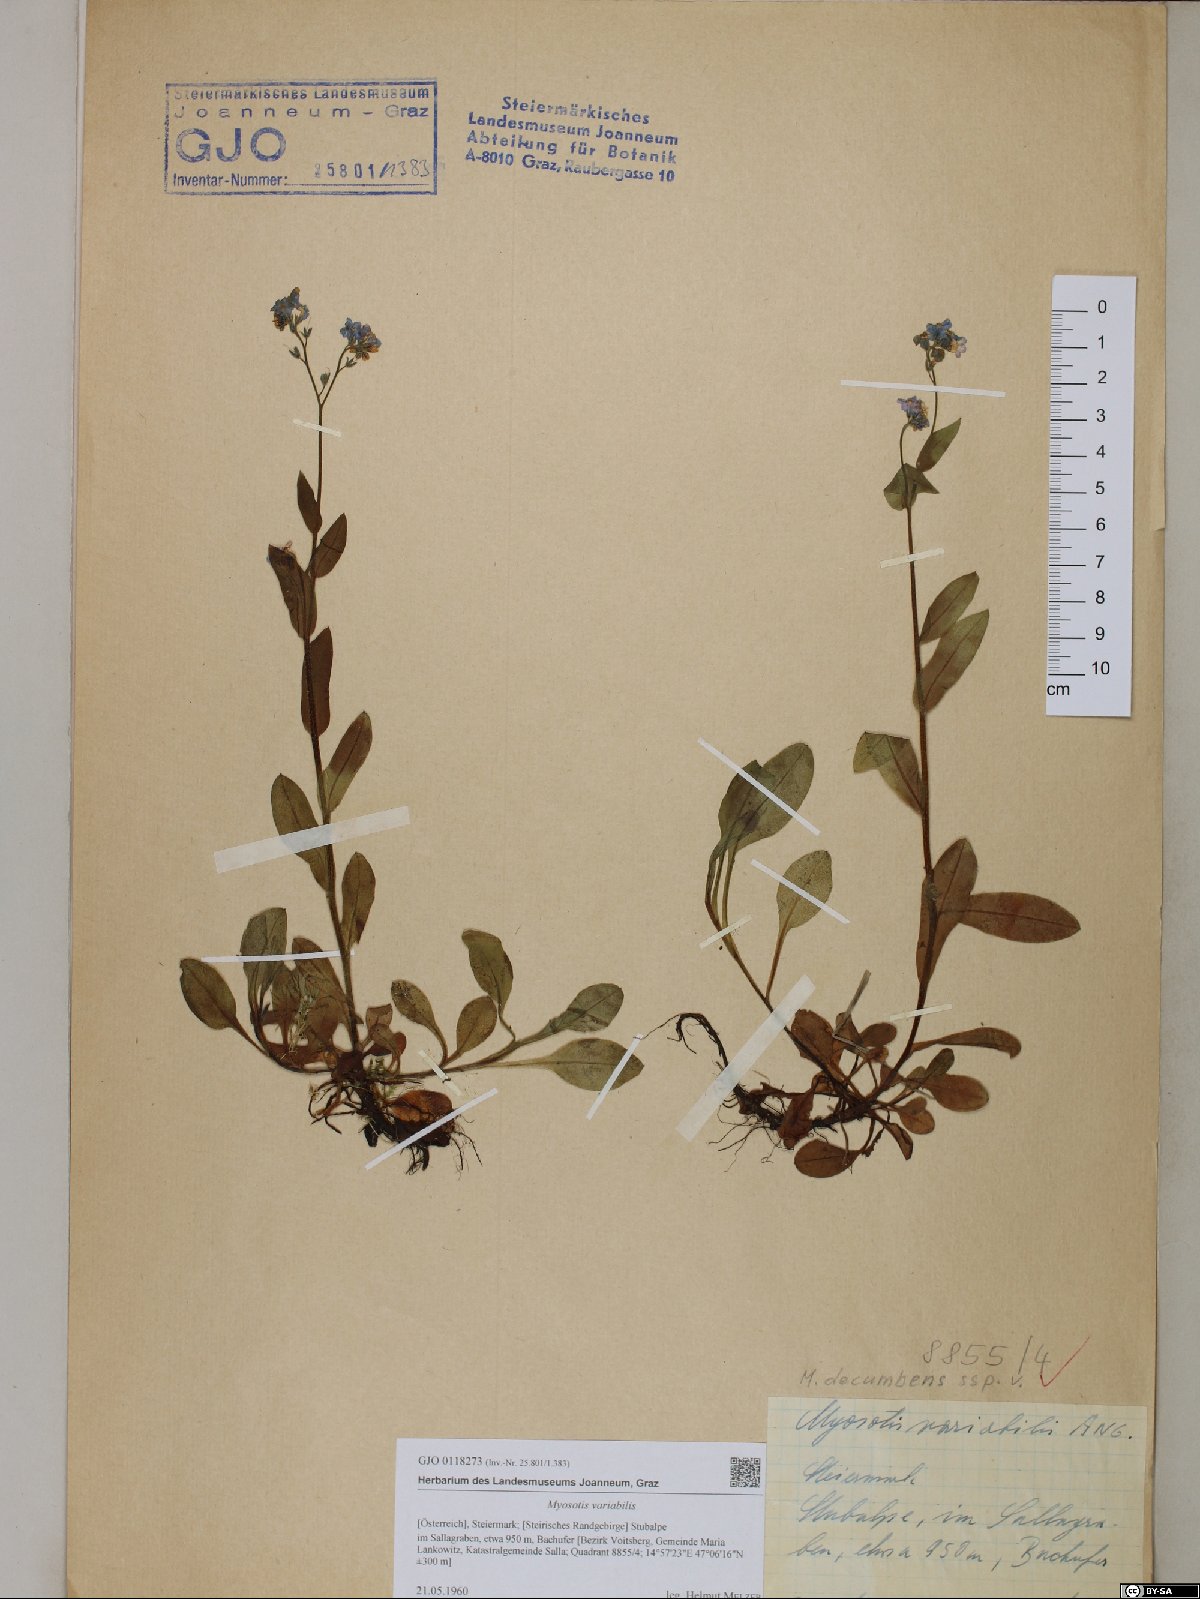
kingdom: Plantae
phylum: Tracheophyta
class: Magnoliopsida
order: Boraginales
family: Boraginaceae
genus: Myosotis
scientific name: Myosotis decumbens
